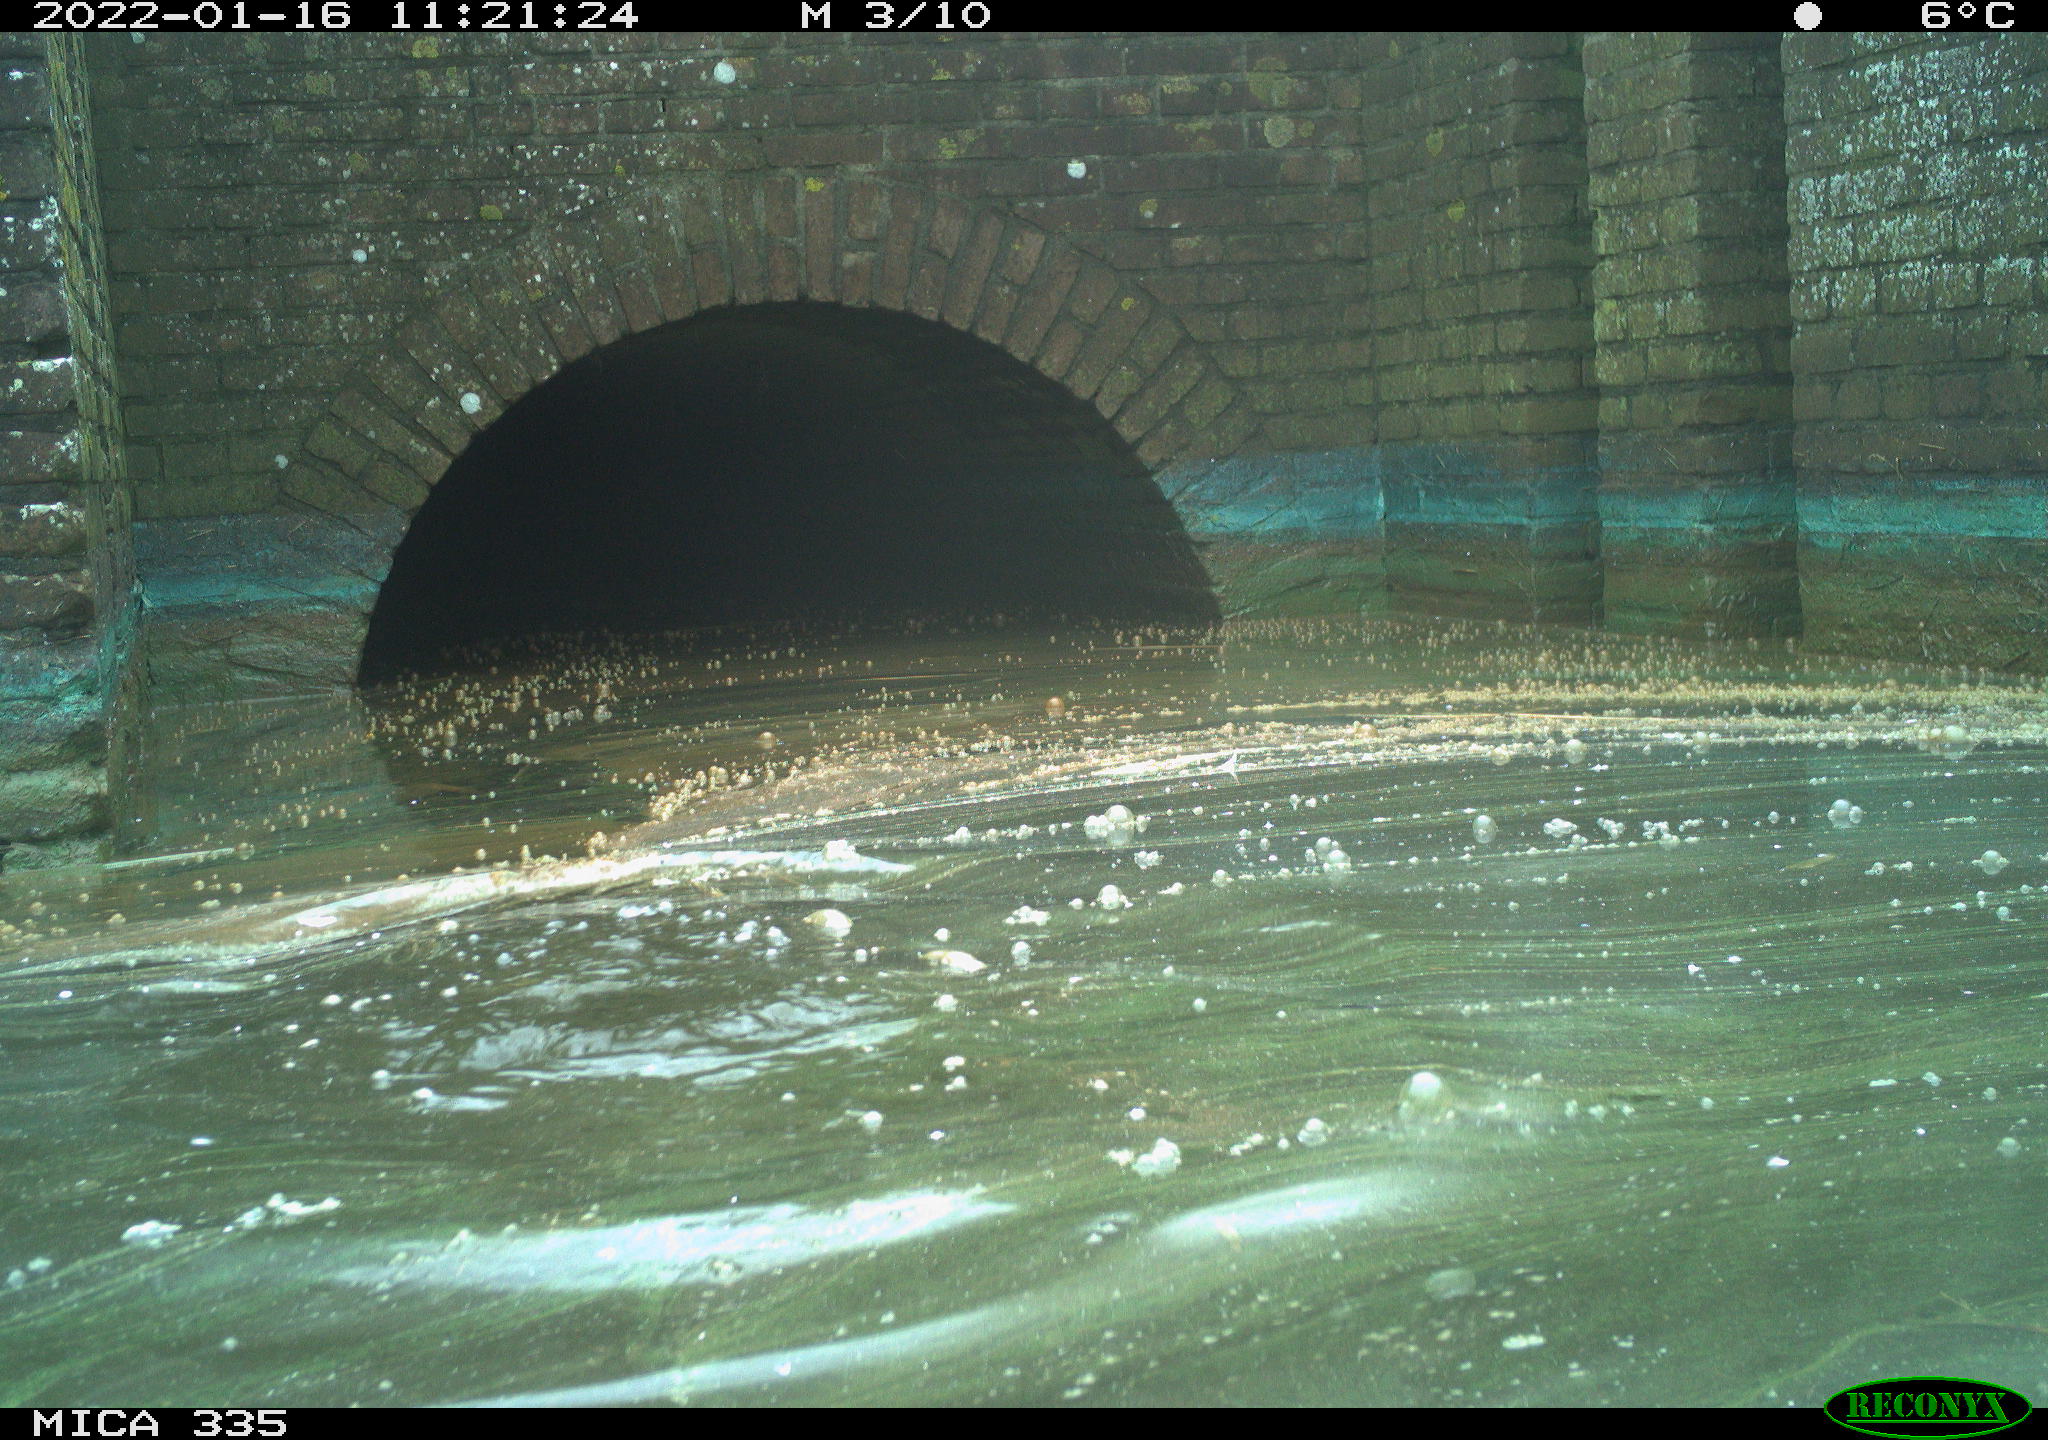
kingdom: Animalia
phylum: Chordata
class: Aves
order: Suliformes
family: Phalacrocoracidae
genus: Phalacrocorax
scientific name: Phalacrocorax carbo
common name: Great cormorant
